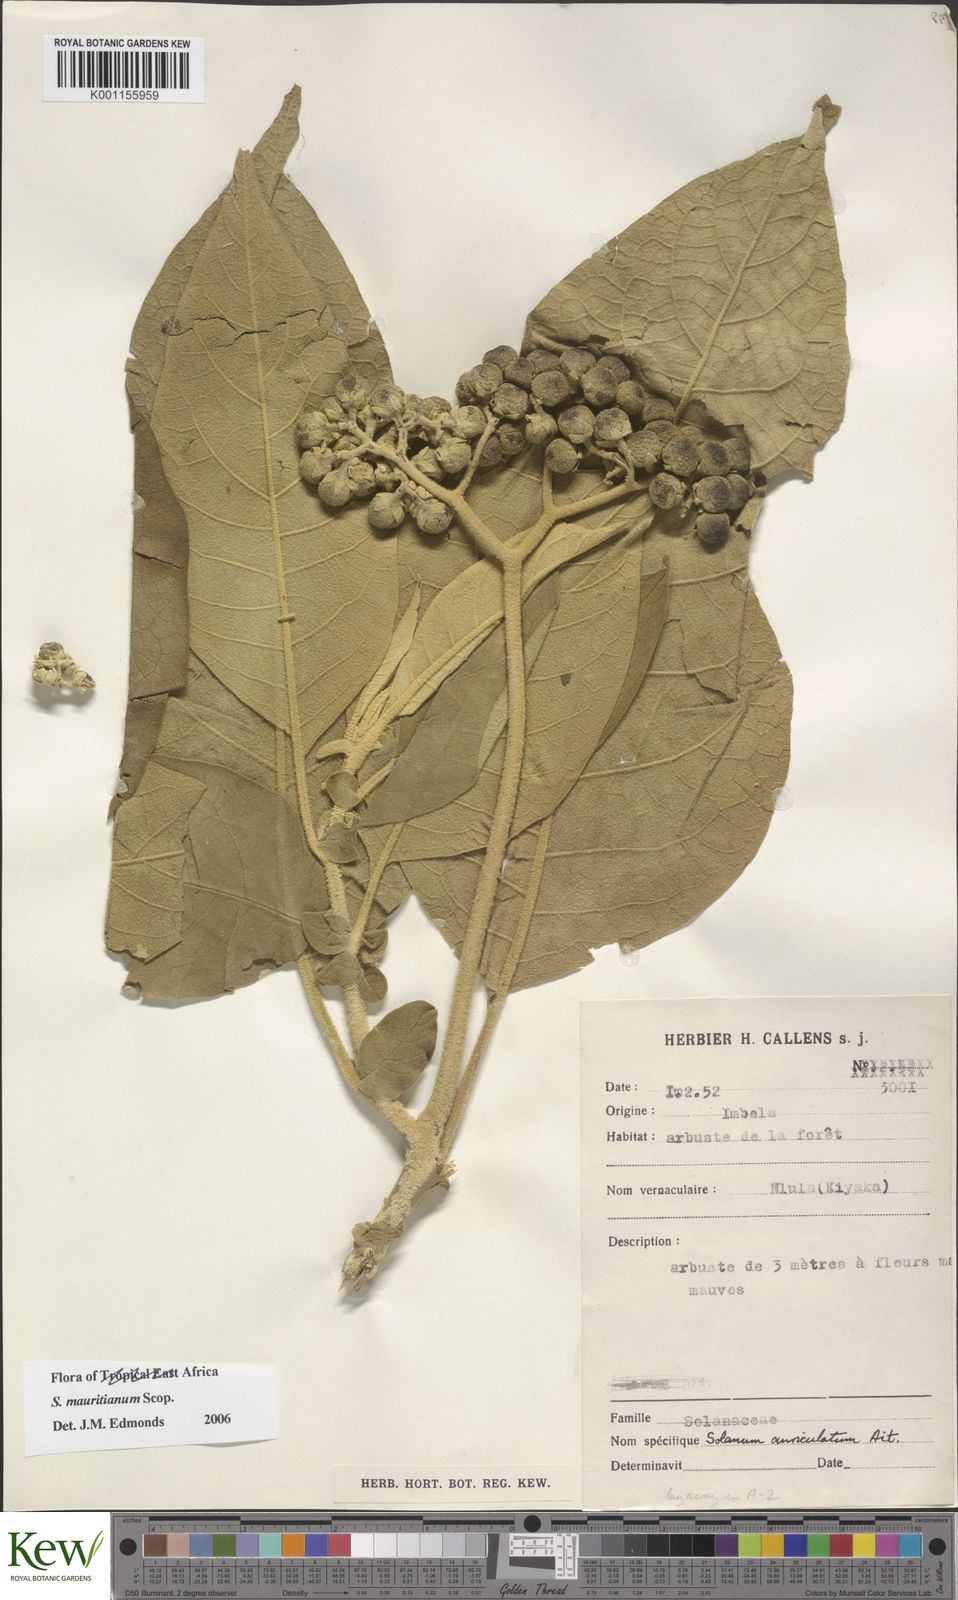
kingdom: Plantae
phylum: Tracheophyta
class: Magnoliopsida
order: Solanales
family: Solanaceae
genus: Solanum
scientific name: Solanum mauritianum
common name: Earleaf nightshade
